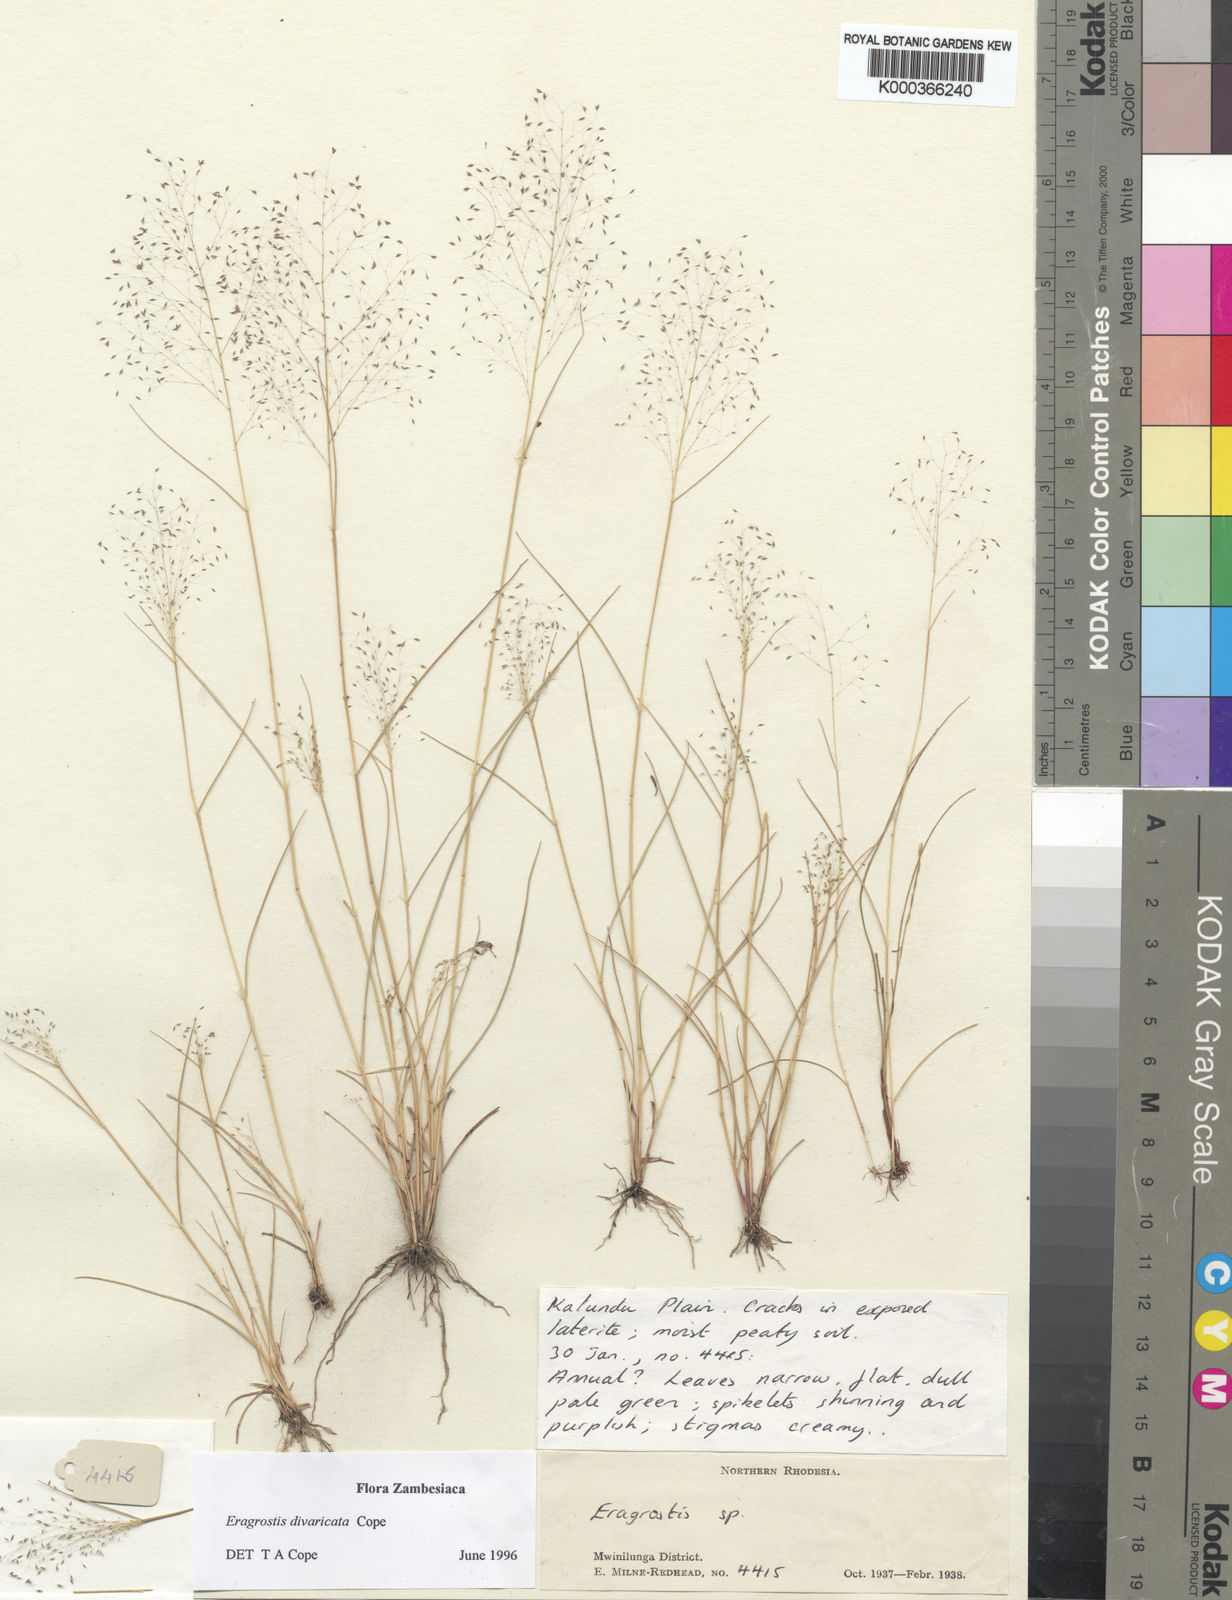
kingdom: Plantae
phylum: Tracheophyta
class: Liliopsida
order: Poales
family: Poaceae
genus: Eragrostis
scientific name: Eragrostis divaricata
